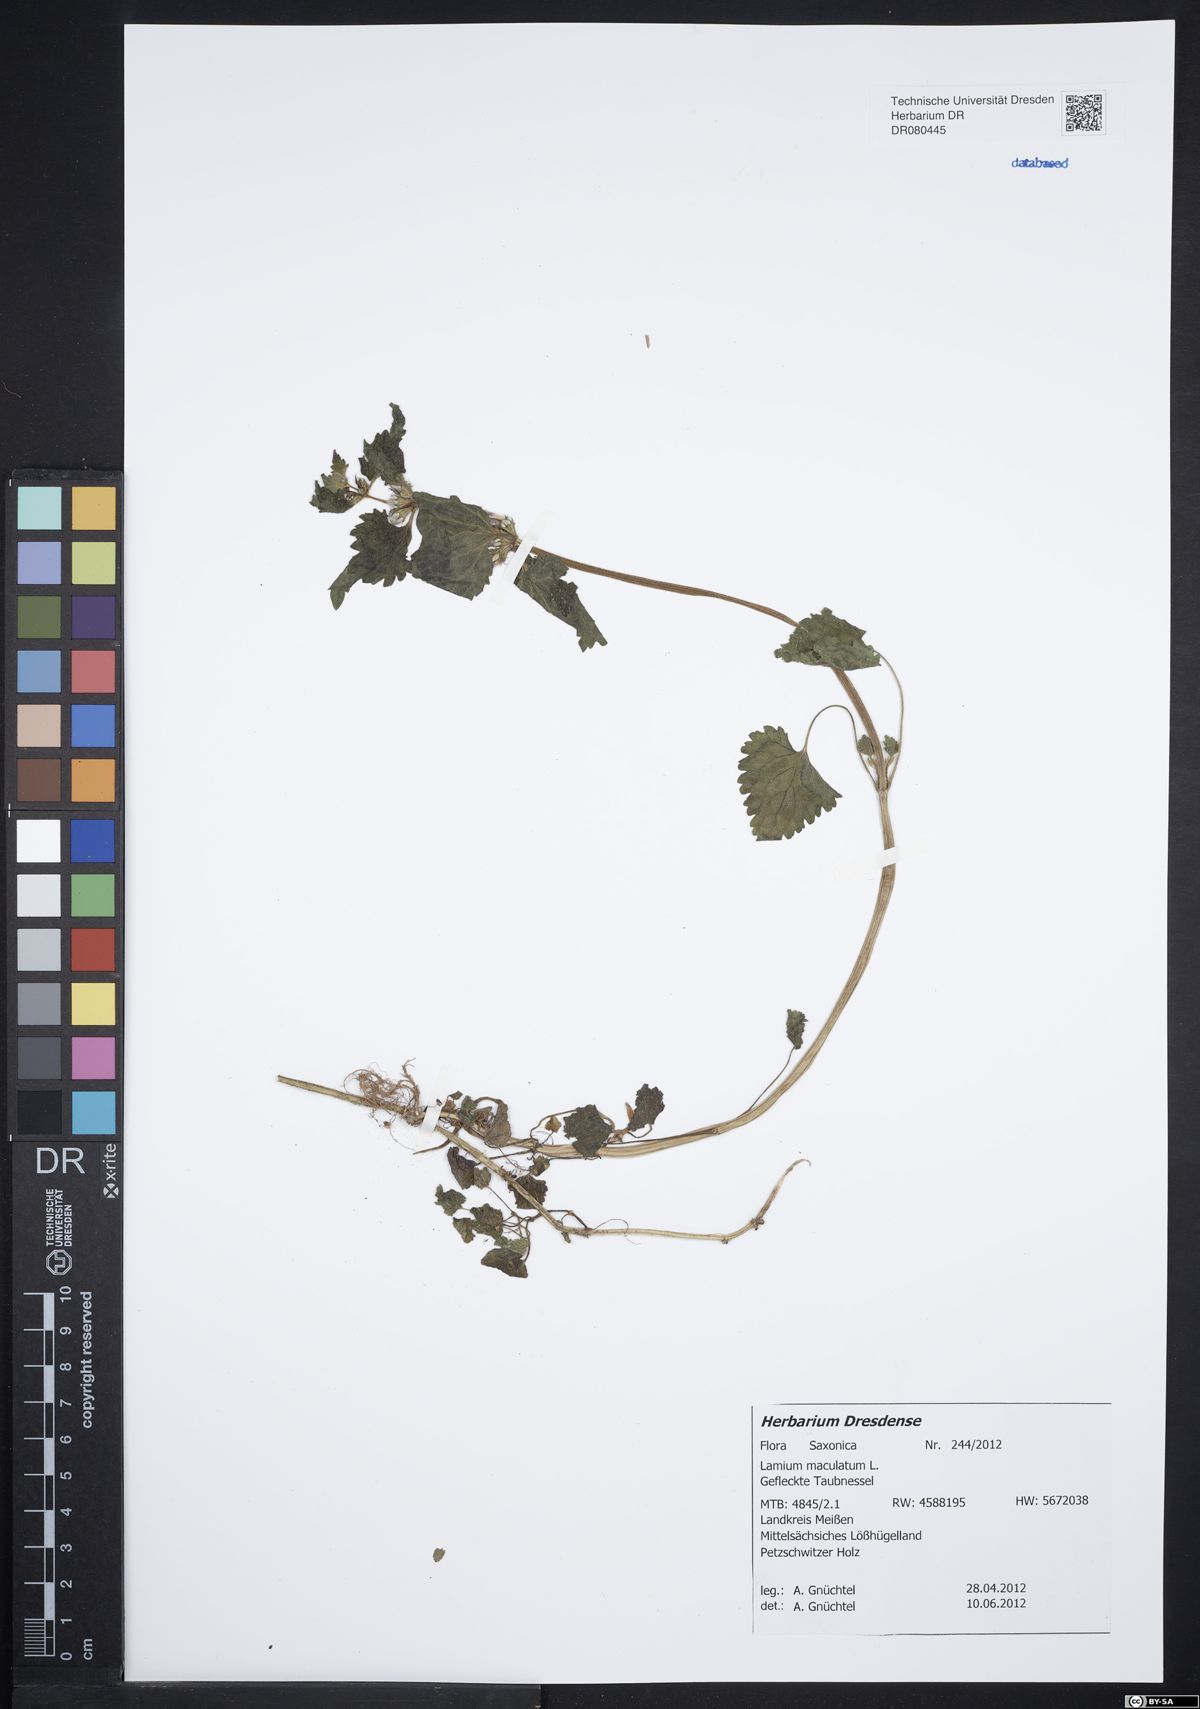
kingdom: Plantae
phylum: Tracheophyta
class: Magnoliopsida
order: Lamiales
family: Lamiaceae
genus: Lamium
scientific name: Lamium maculatum
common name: Spotted dead-nettle
